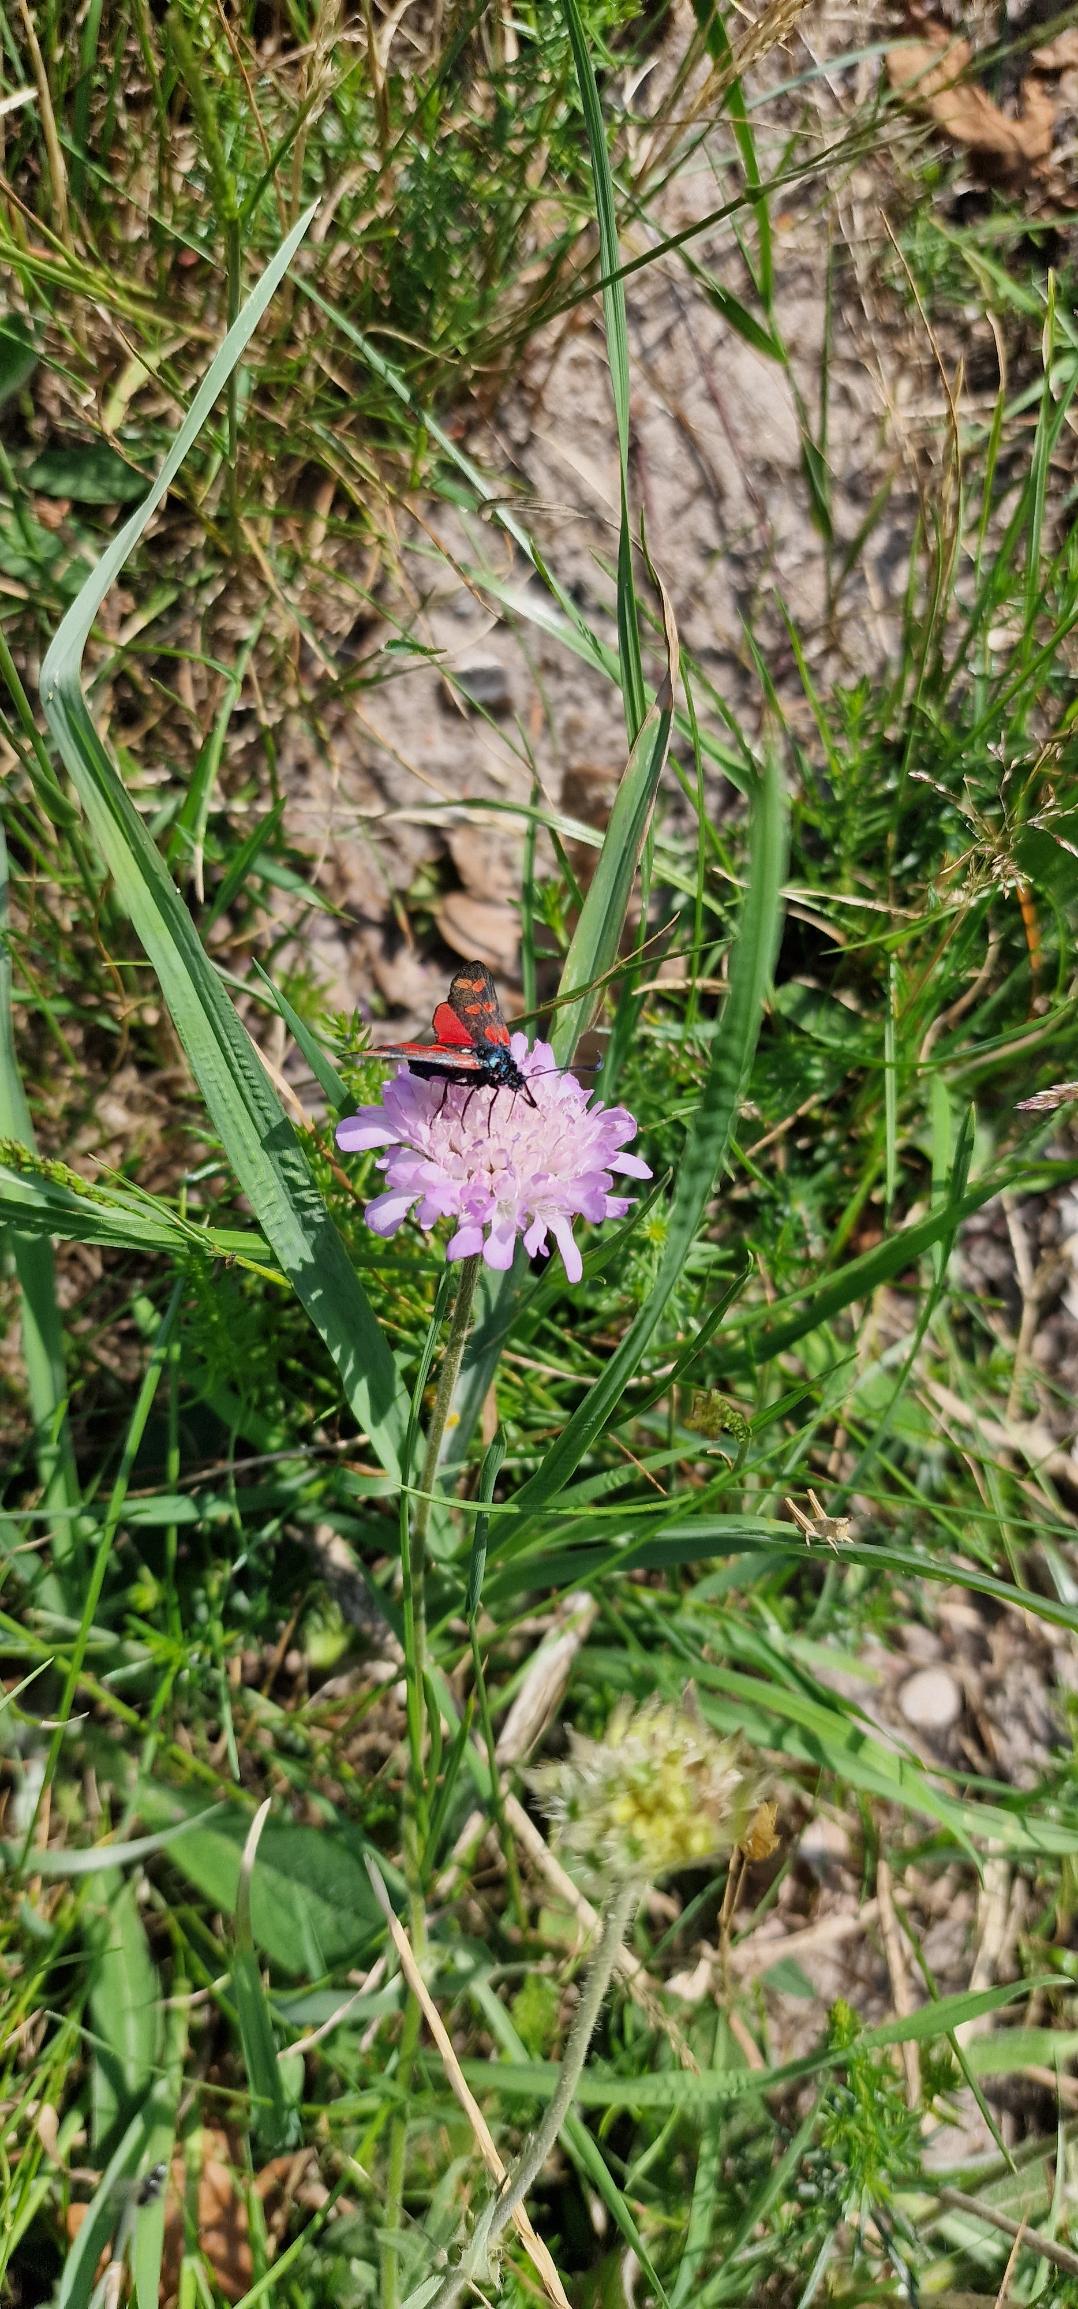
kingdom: Animalia
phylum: Arthropoda
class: Insecta
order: Lepidoptera
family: Zygaenidae
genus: Zygaena
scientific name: Zygaena filipendulae
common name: Seksplettet køllesværmer
